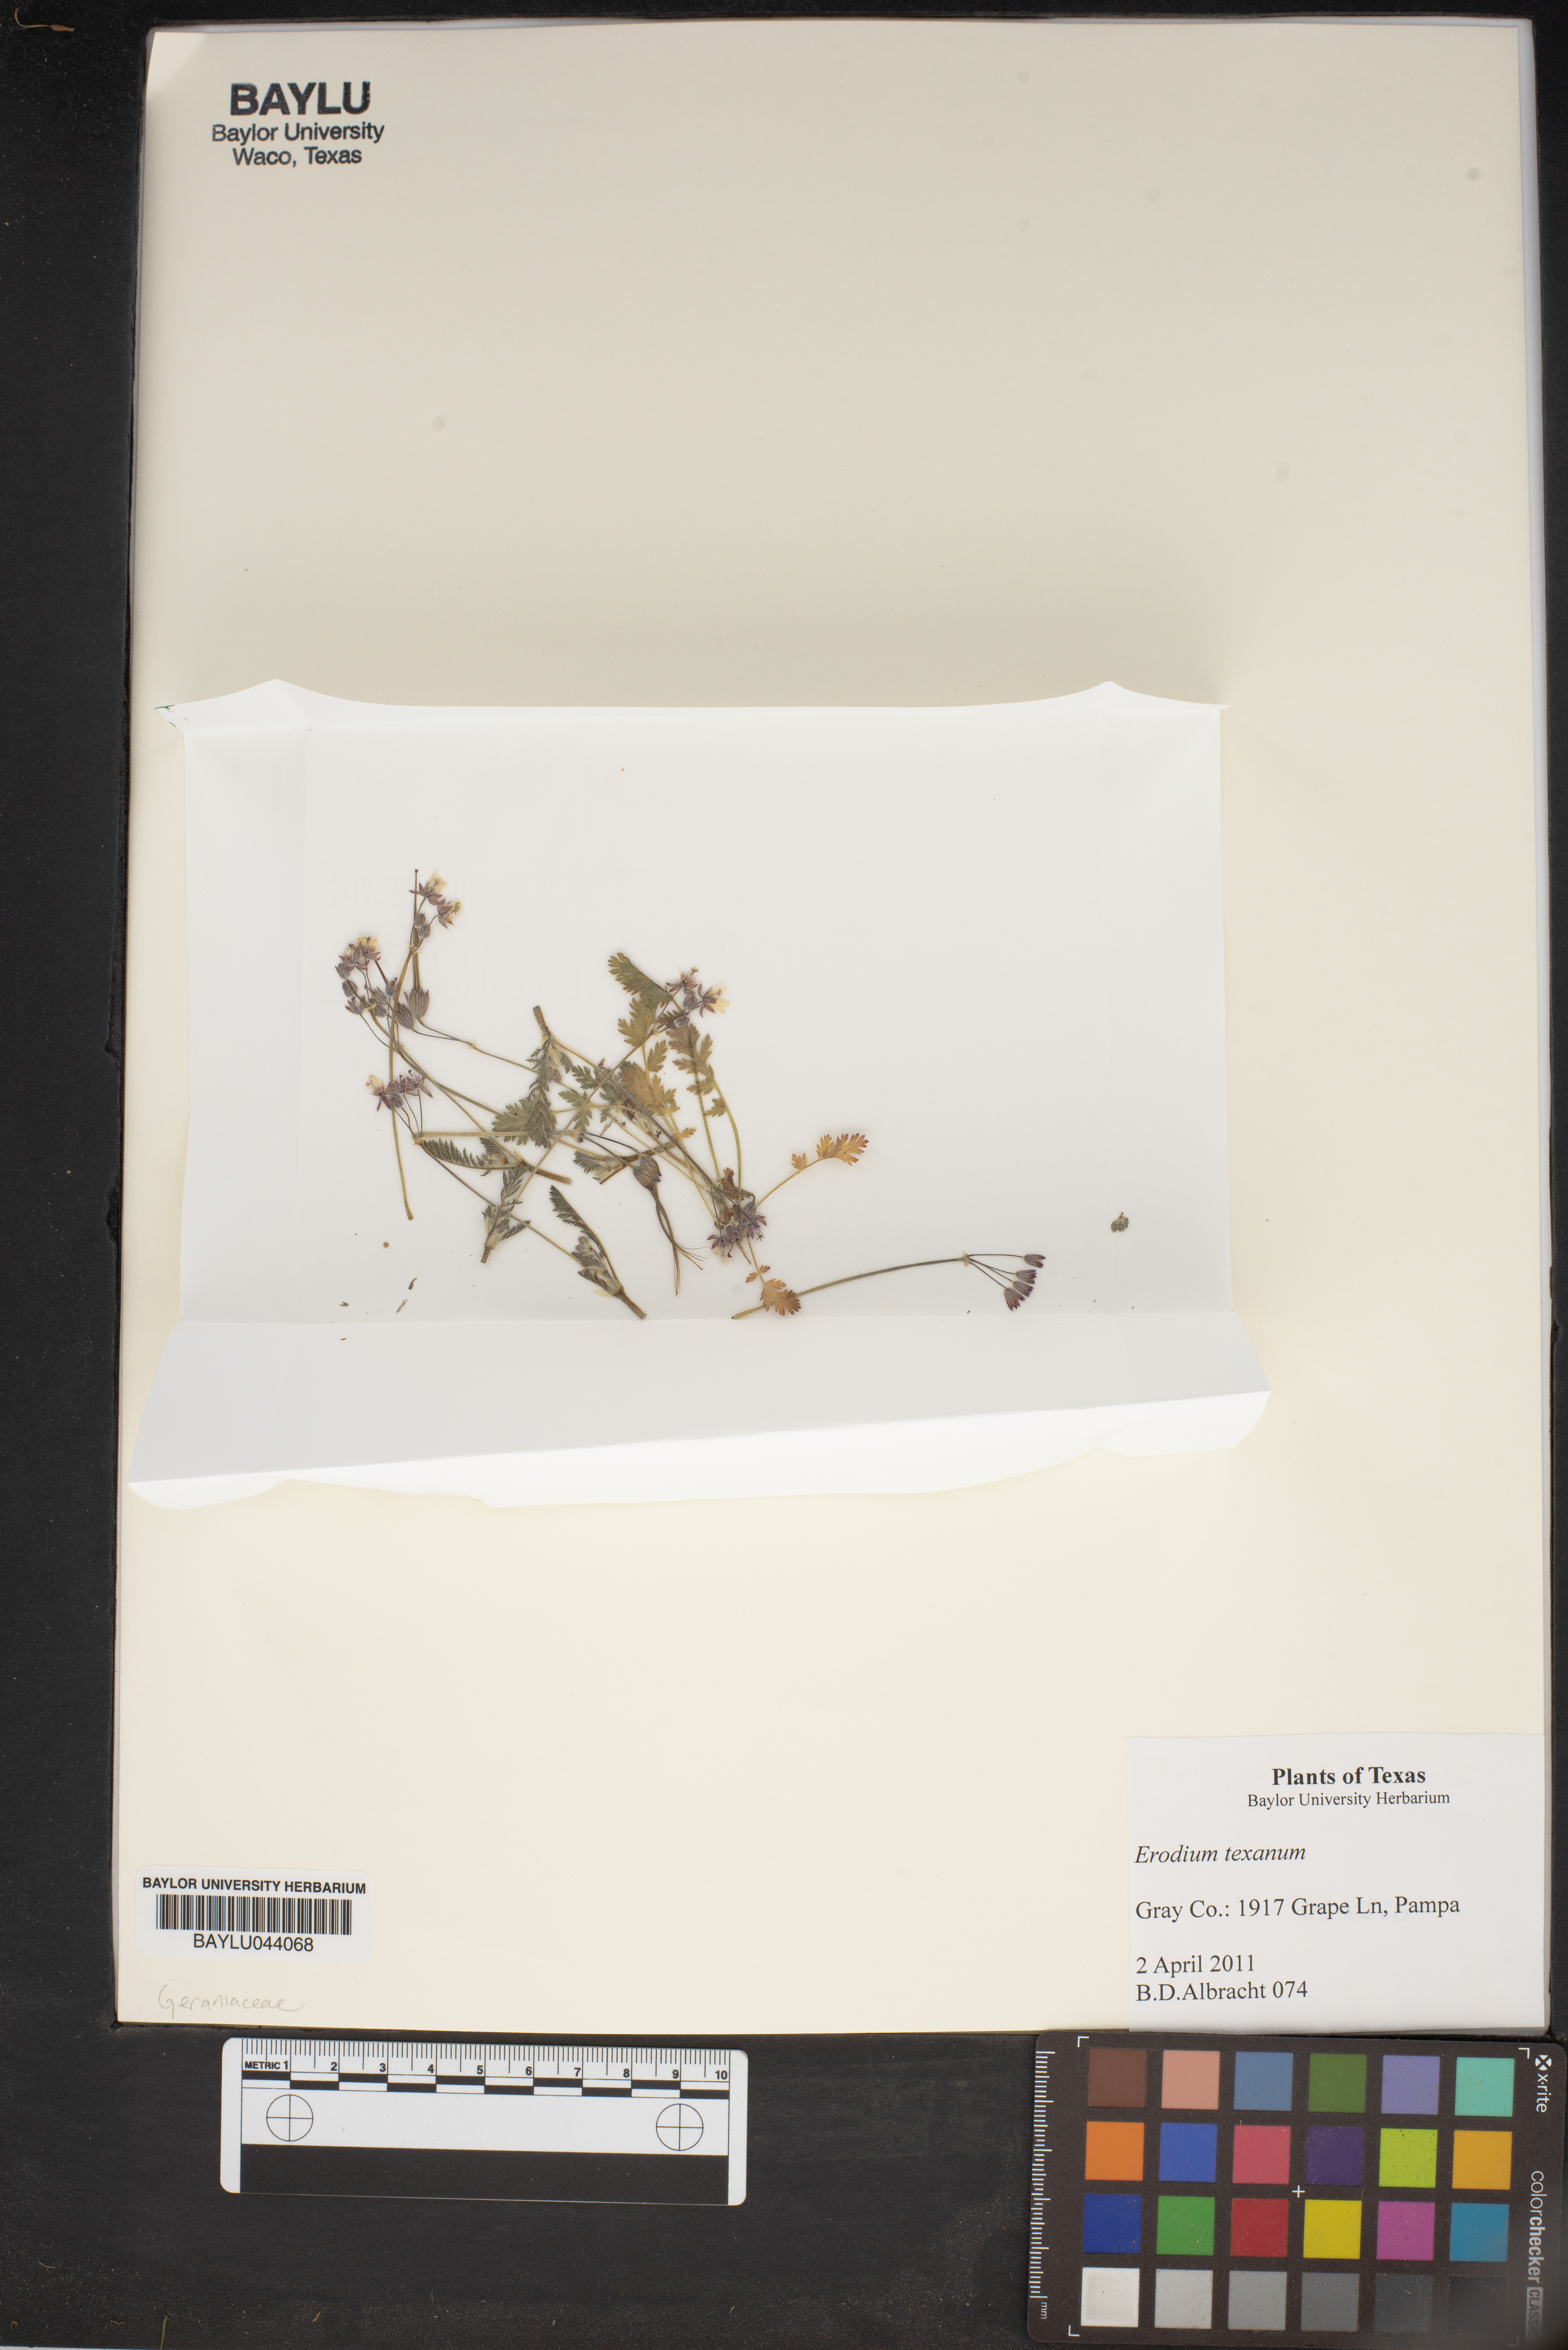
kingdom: Plantae
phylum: Tracheophyta
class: Magnoliopsida
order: Geraniales
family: Geraniaceae
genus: Erodium
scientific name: Erodium texanum
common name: Texas stork's-bill
